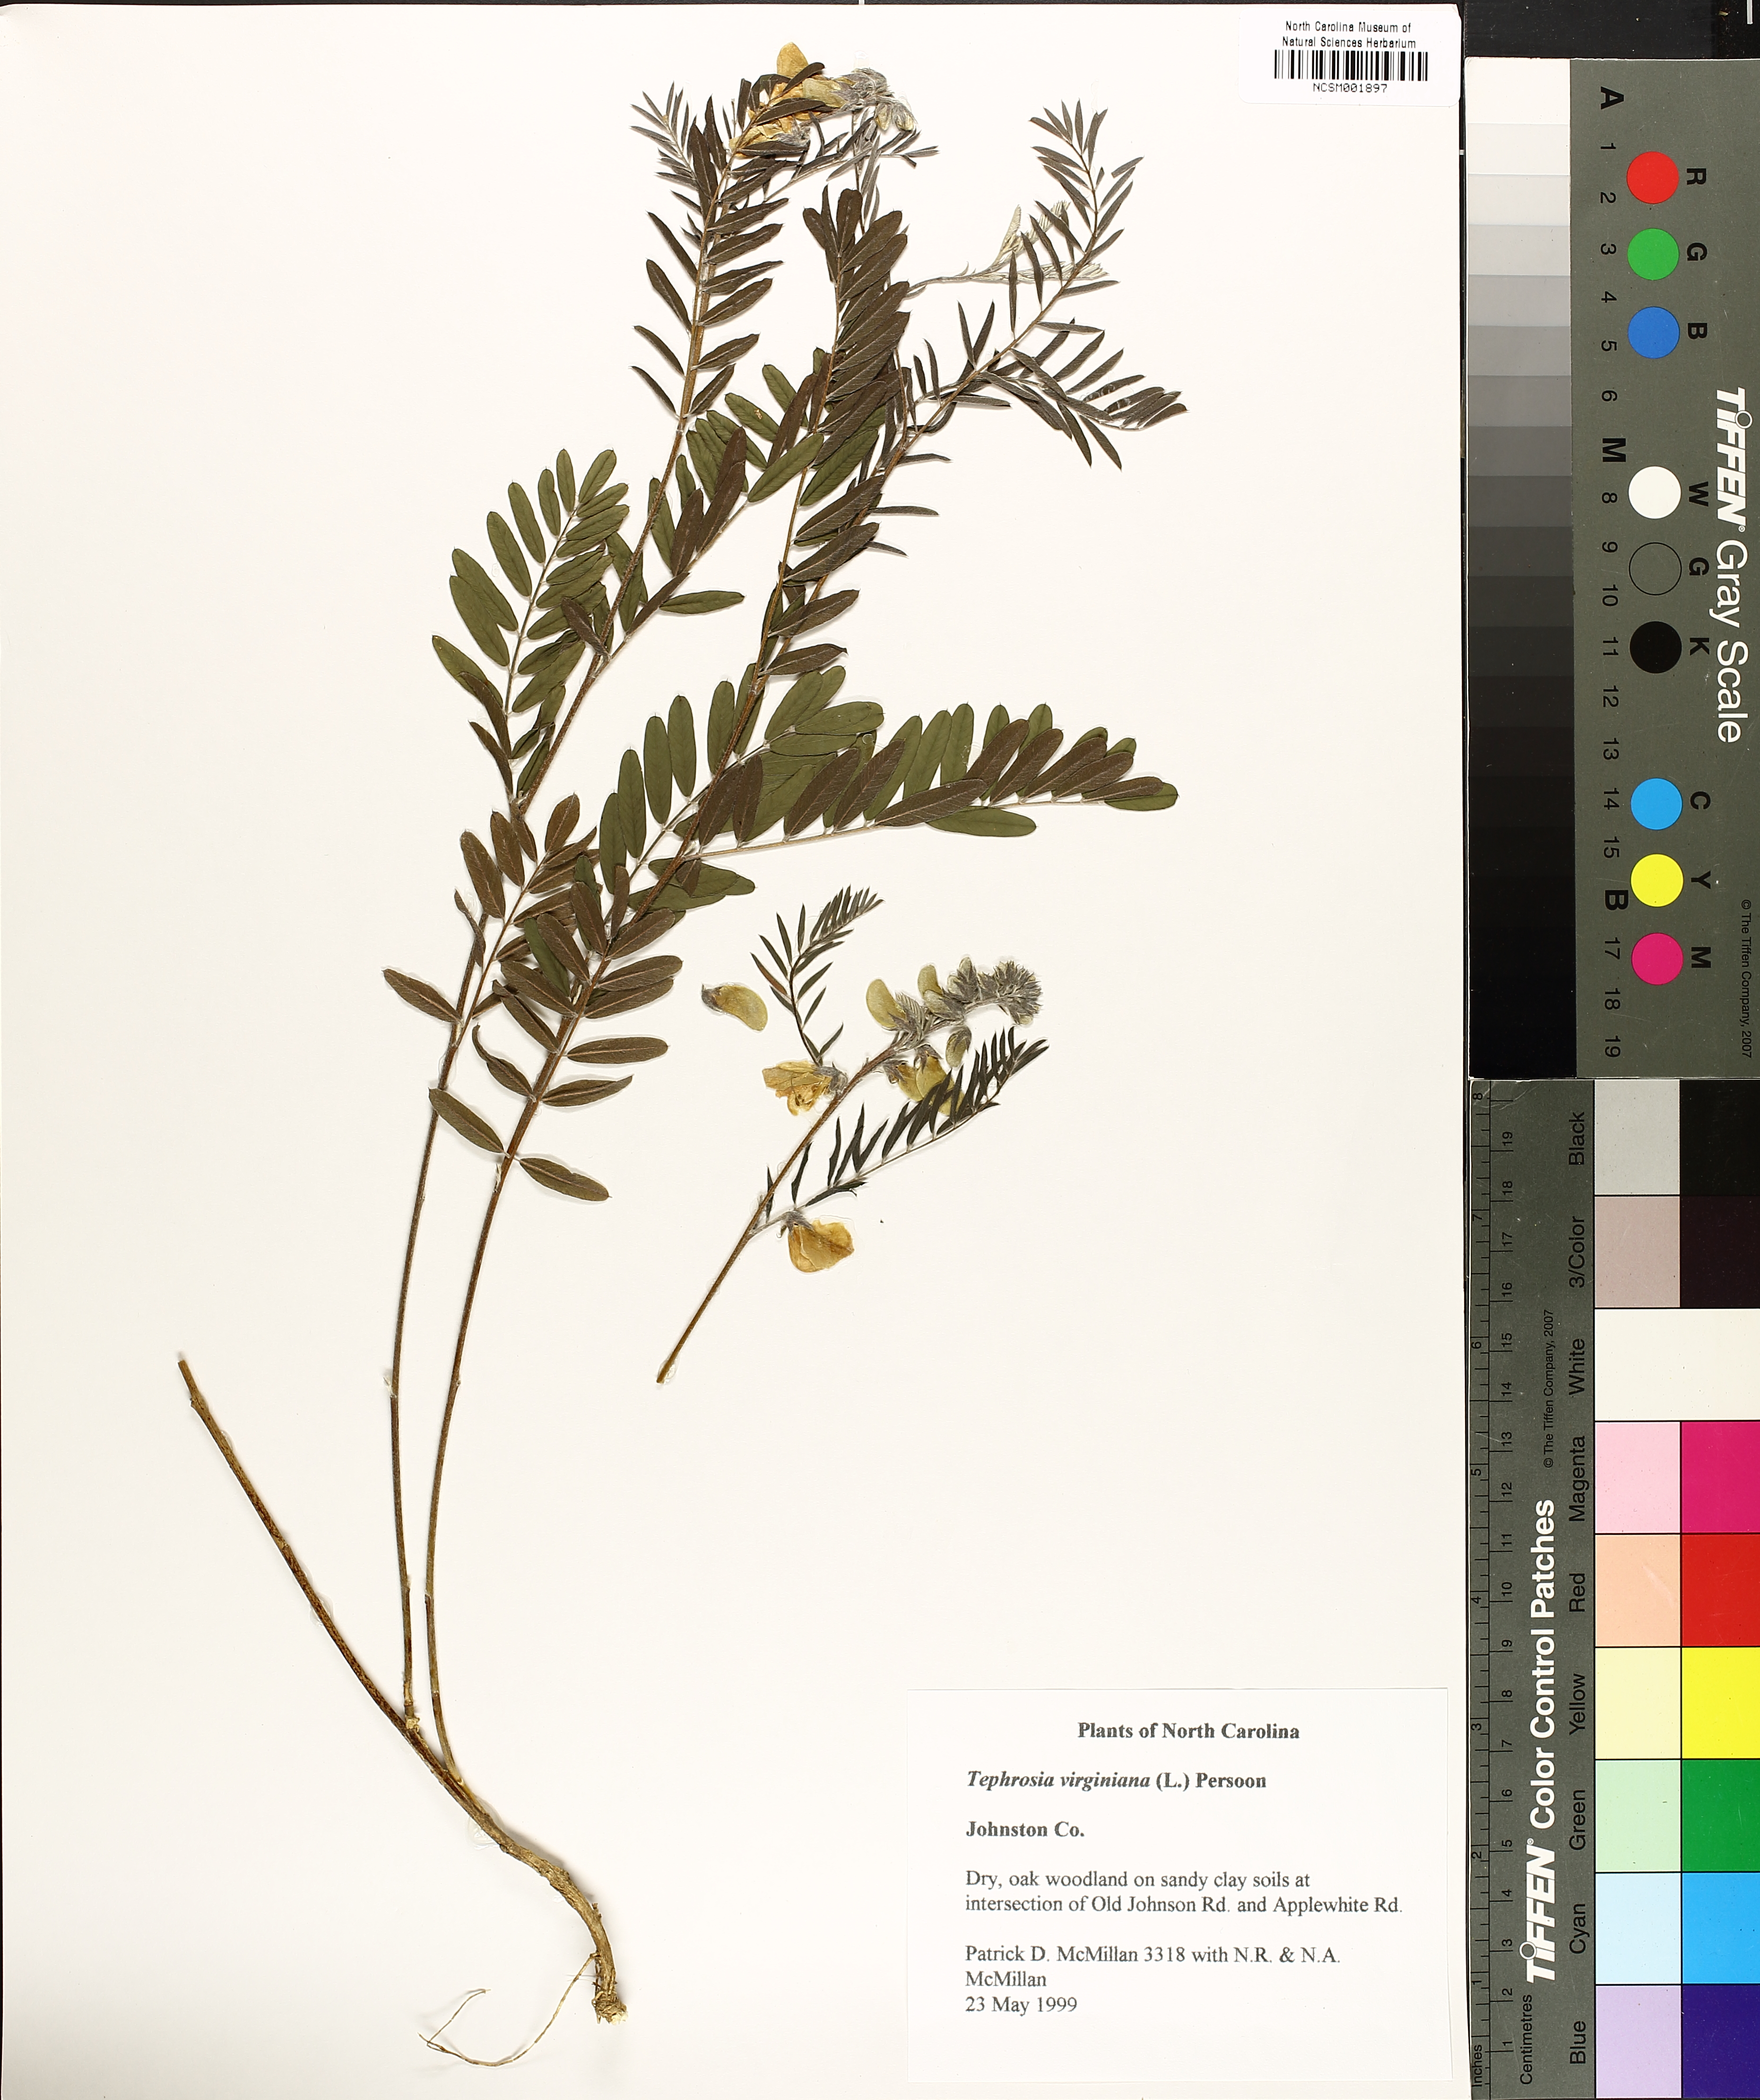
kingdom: Plantae
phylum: Tracheophyta
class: Magnoliopsida
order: Fabales
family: Fabaceae
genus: Tephrosia
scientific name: Tephrosia virginiana
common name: Rabbit-pea
